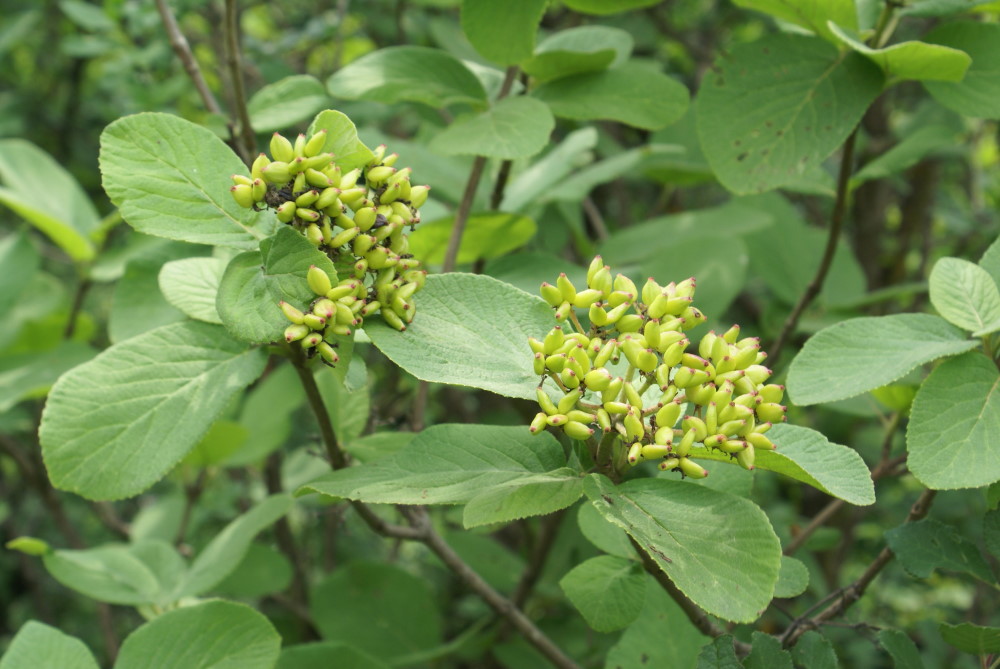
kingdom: Plantae
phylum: Tracheophyta
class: Magnoliopsida
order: Dipsacales
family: Viburnaceae
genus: Viburnum
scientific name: Viburnum lentago
